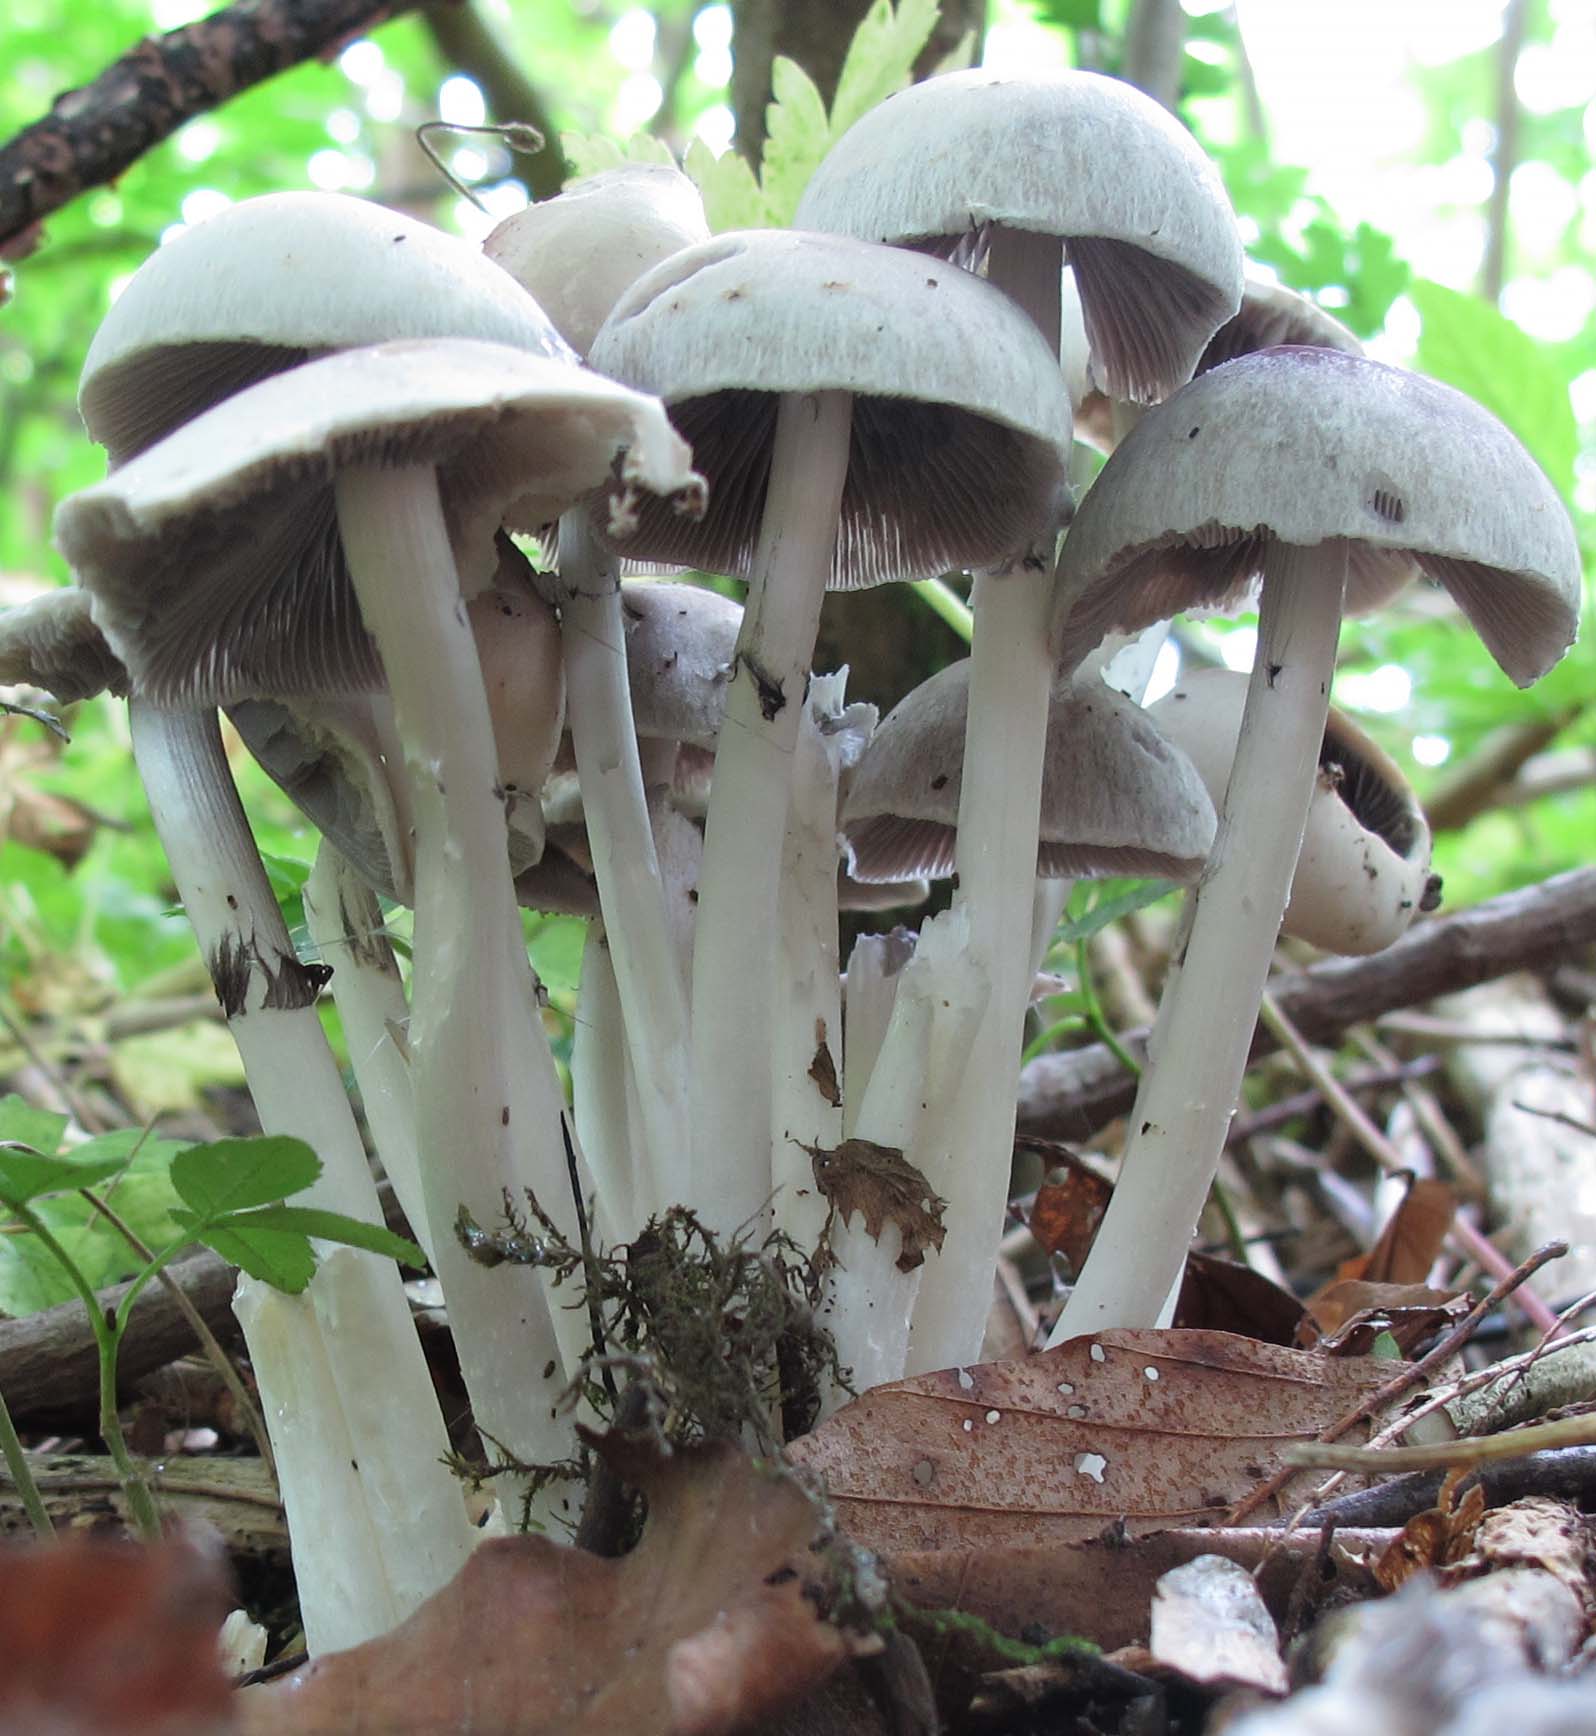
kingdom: Fungi
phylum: Basidiomycota
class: Agaricomycetes
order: Agaricales
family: Psathyrellaceae
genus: Candolleomyces
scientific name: Candolleomyces leucotephrus
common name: askehvid mørkhat
